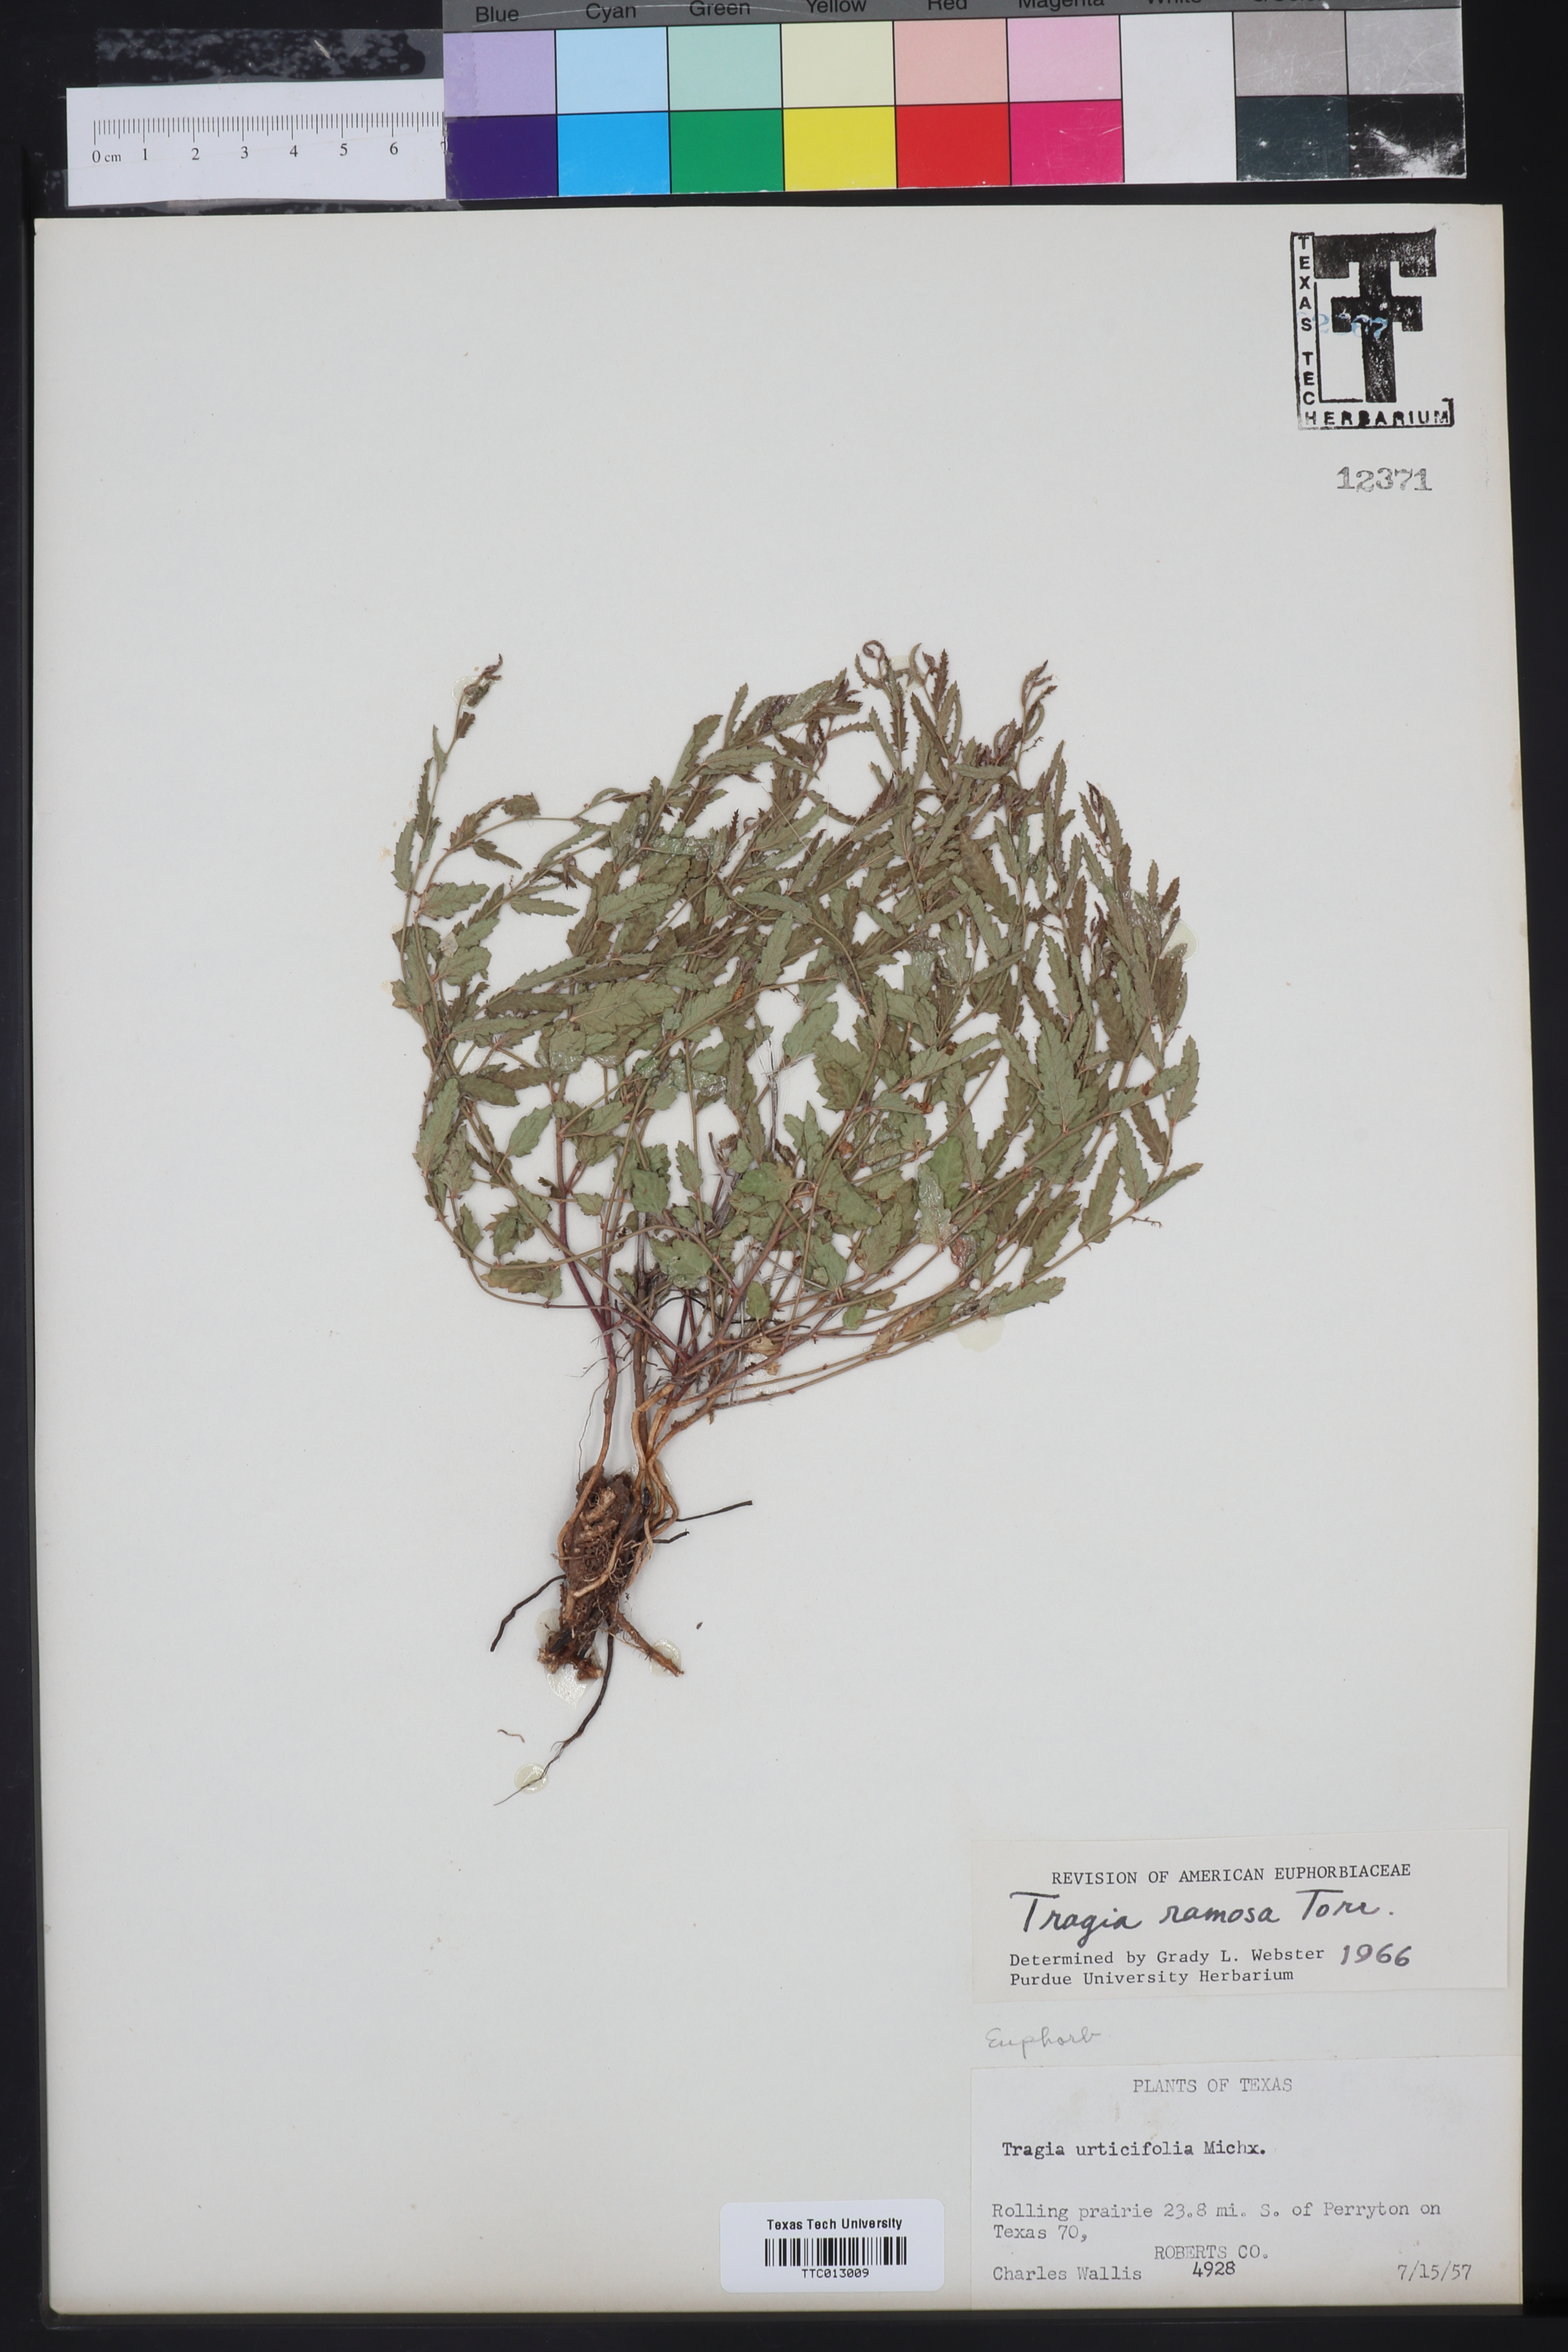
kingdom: Plantae
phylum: Tracheophyta
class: Magnoliopsida
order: Malpighiales
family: Euphorbiaceae
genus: Tragia
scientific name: Tragia ramosa
